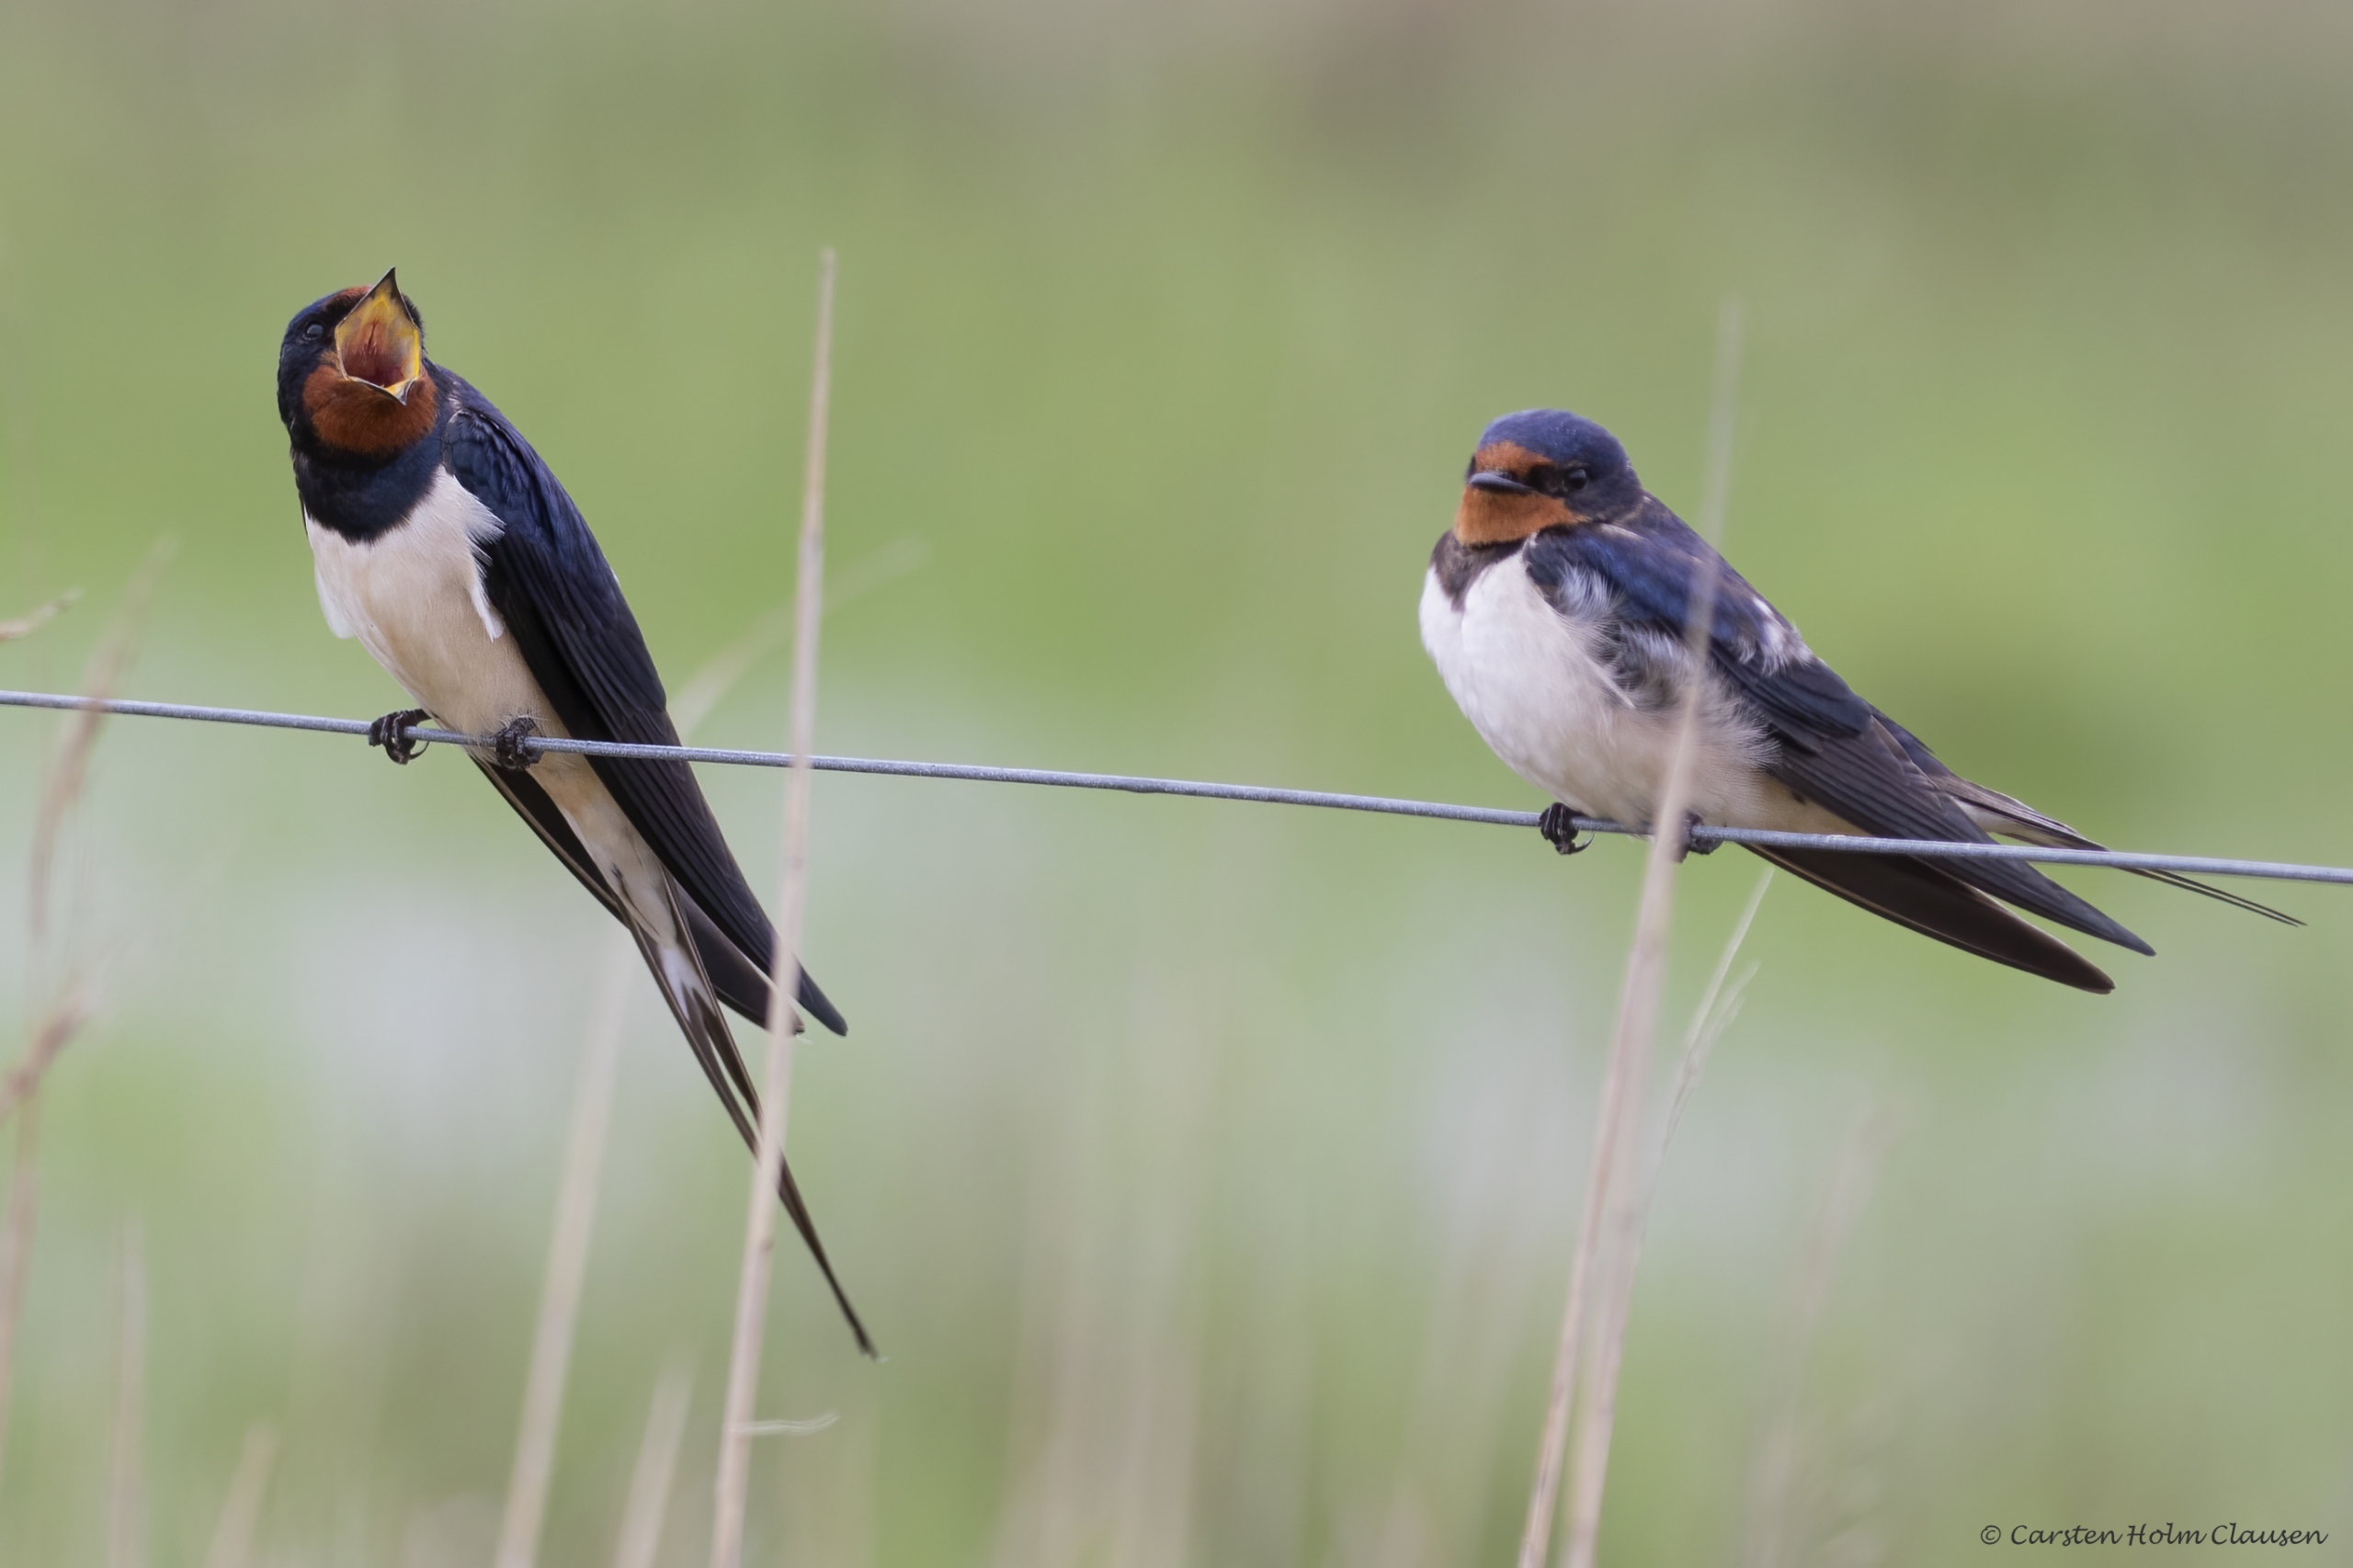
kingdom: Animalia
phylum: Chordata
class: Aves
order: Passeriformes
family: Hirundinidae
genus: Hirundo
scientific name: Hirundo rustica
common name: Landsvale
